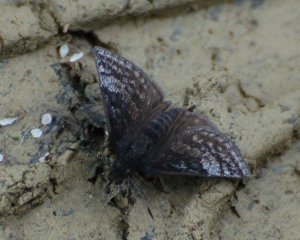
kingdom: Animalia
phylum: Arthropoda
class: Insecta
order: Lepidoptera
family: Hesperiidae
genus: Erynnis
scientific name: Erynnis icelus
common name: Dreamy Duskywing
